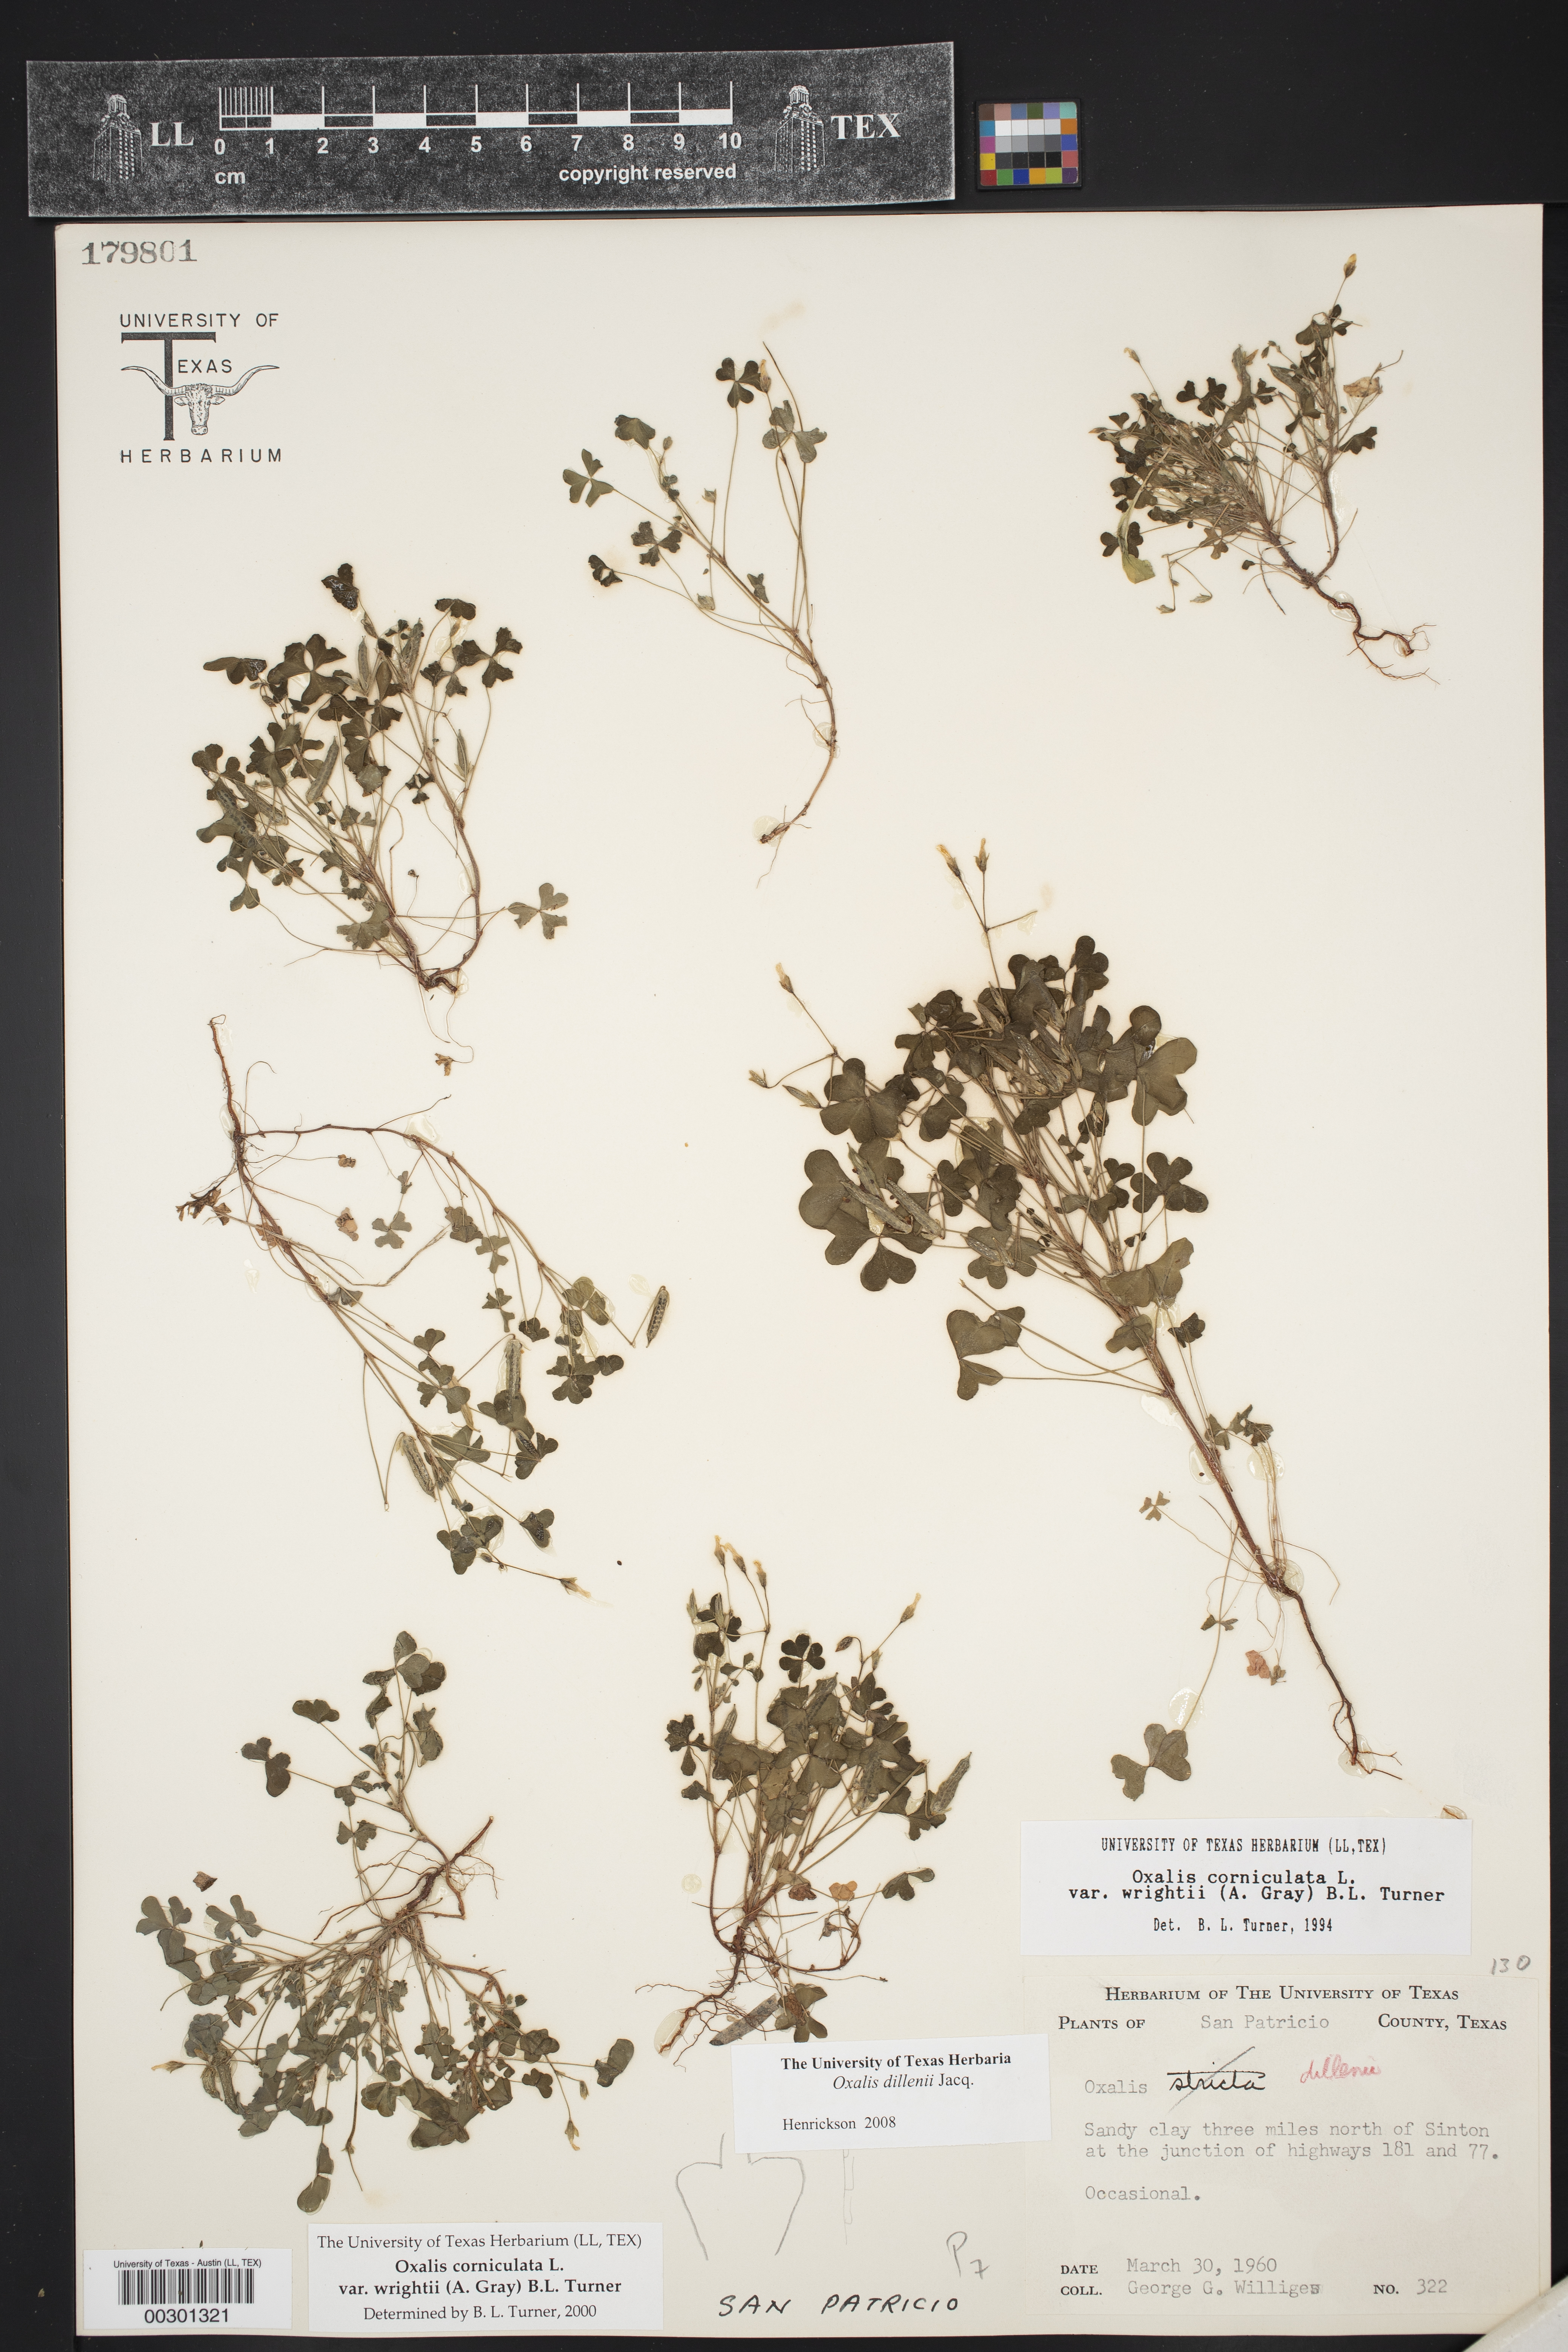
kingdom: Plantae
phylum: Tracheophyta
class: Magnoliopsida
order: Oxalidales
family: Oxalidaceae
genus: Oxalis
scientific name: Oxalis dillenii
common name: Sussex yellow-sorrel
